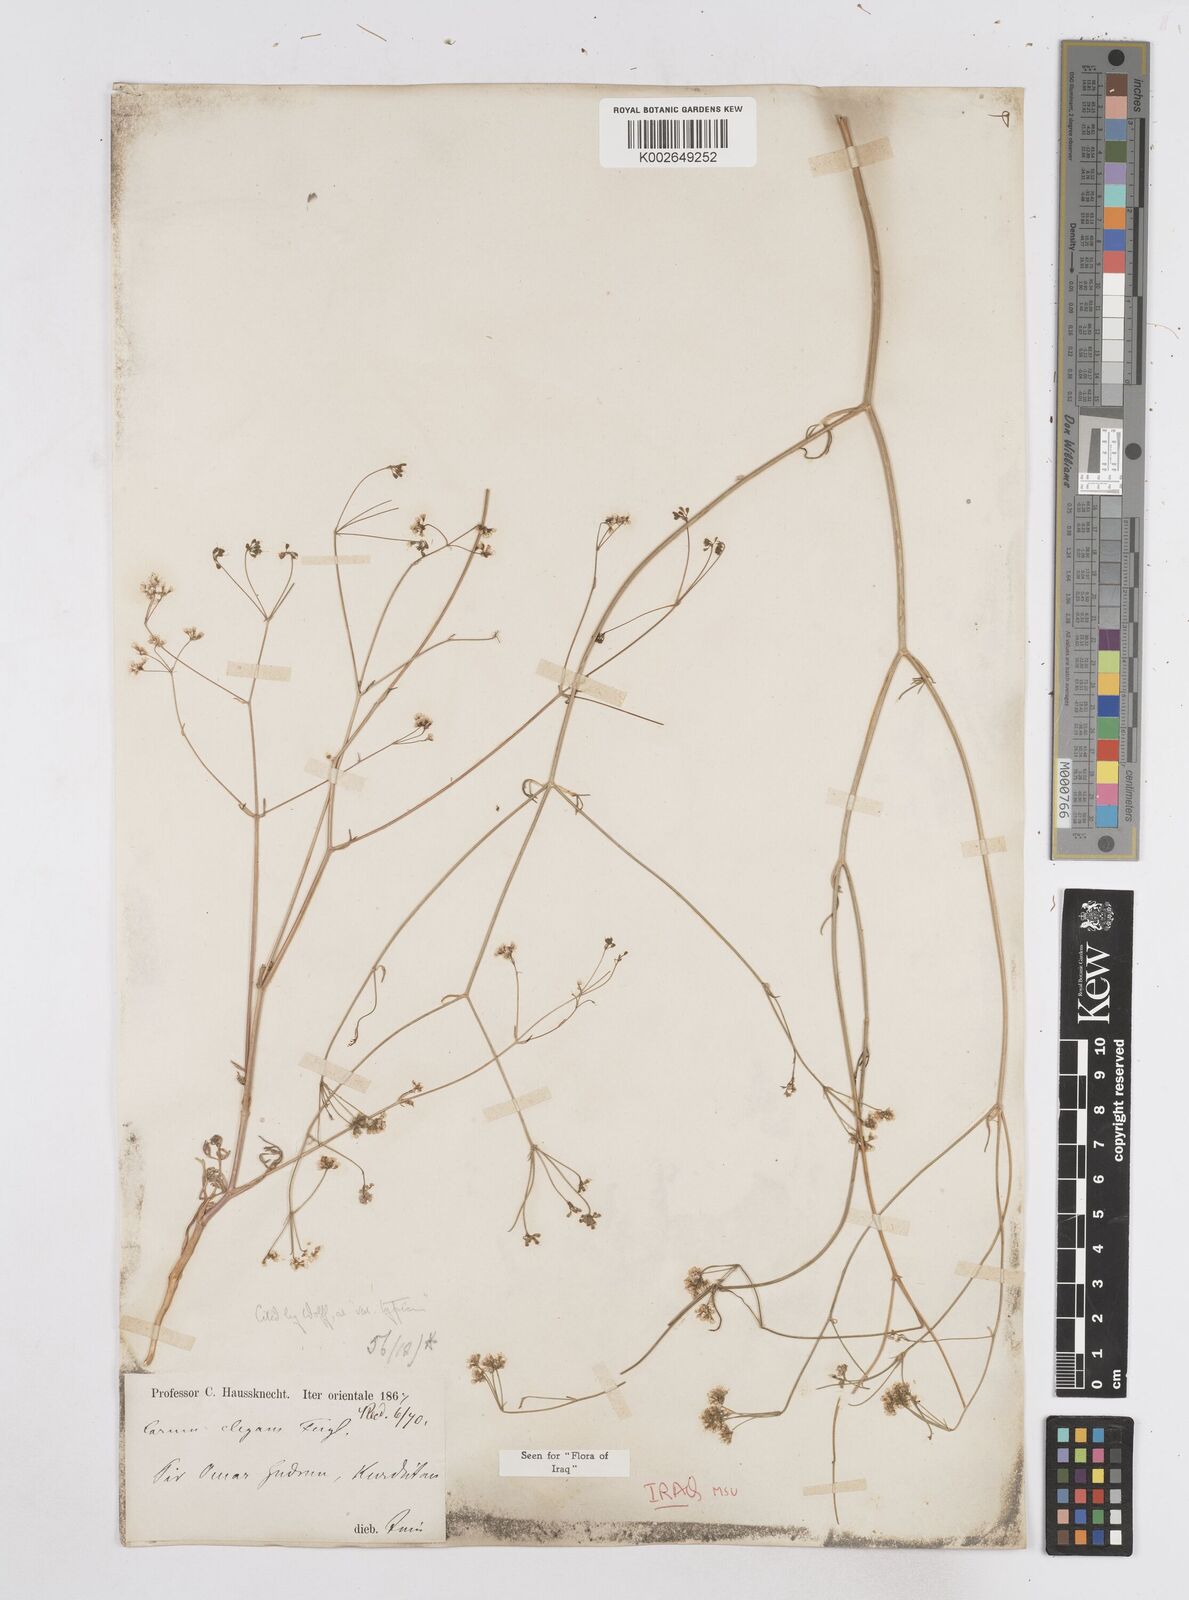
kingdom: Plantae
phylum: Tracheophyta
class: Magnoliopsida
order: Apiales
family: Apiaceae
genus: Bunium
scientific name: Bunium paucifolium
